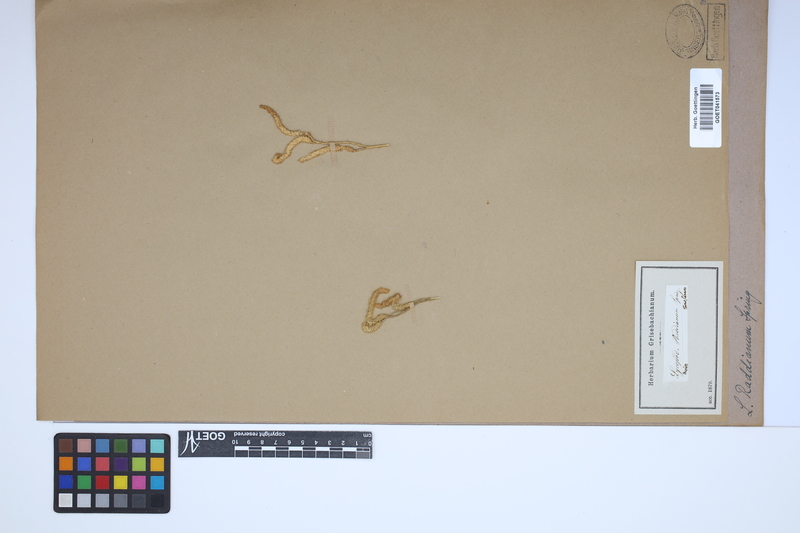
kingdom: Plantae
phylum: Tracheophyta
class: Lycopodiopsida
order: Lycopodiales
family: Lycopodiaceae
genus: Lycopodium
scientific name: Lycopodium
